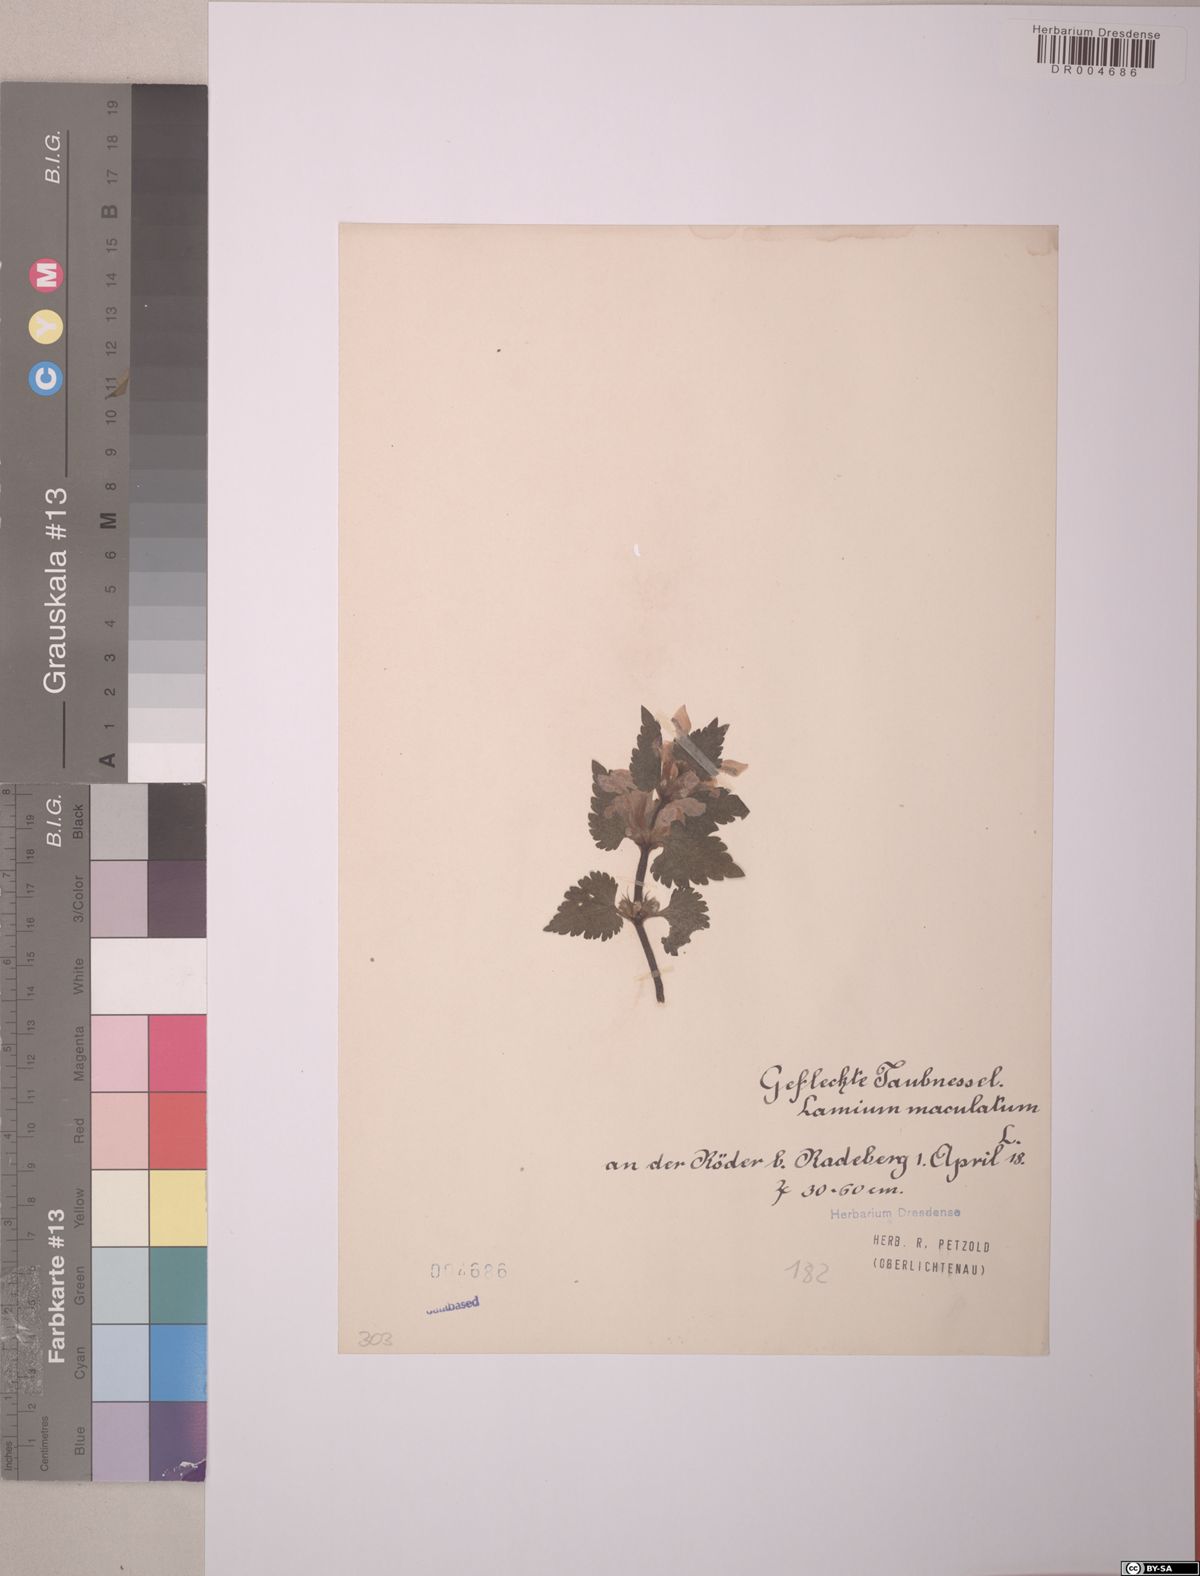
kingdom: Plantae
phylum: Tracheophyta
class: Magnoliopsida
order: Lamiales
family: Lamiaceae
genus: Lamium
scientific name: Lamium maculatum
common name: Spotted dead-nettle
